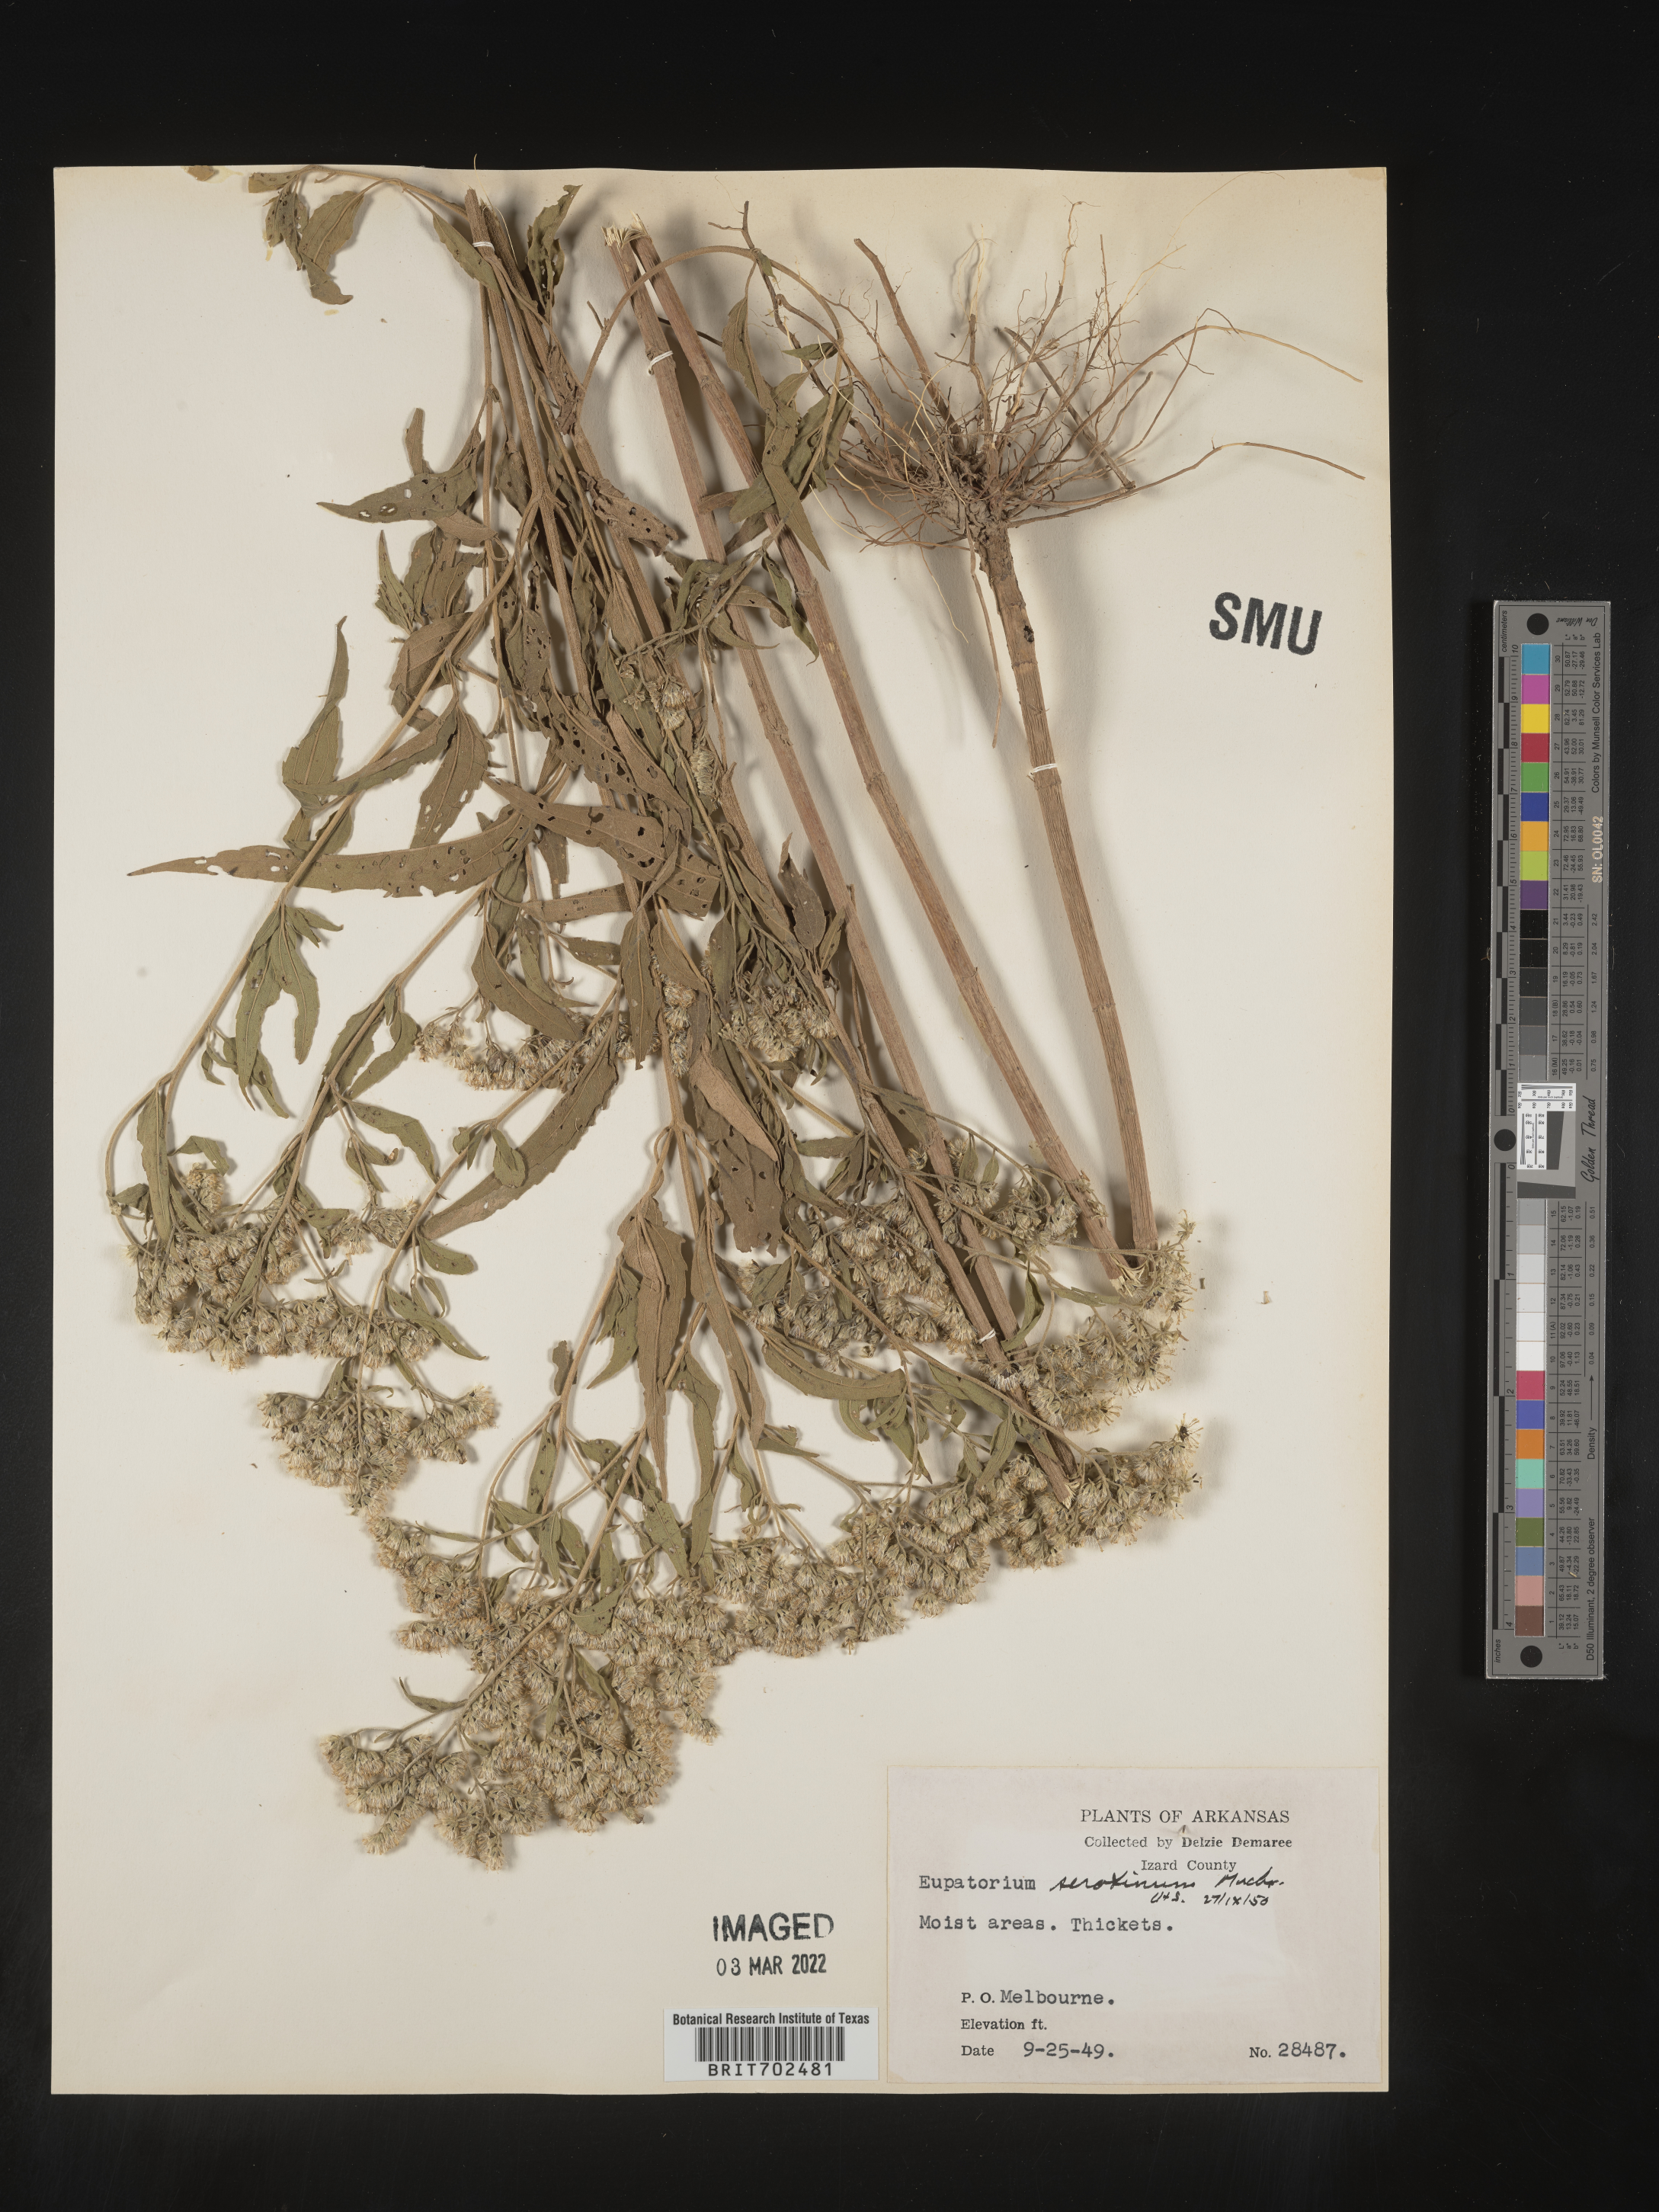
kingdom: Plantae
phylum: Tracheophyta
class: Magnoliopsida
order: Asterales
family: Asteraceae
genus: Eupatorium
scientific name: Eupatorium serotinum
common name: Late boneset
